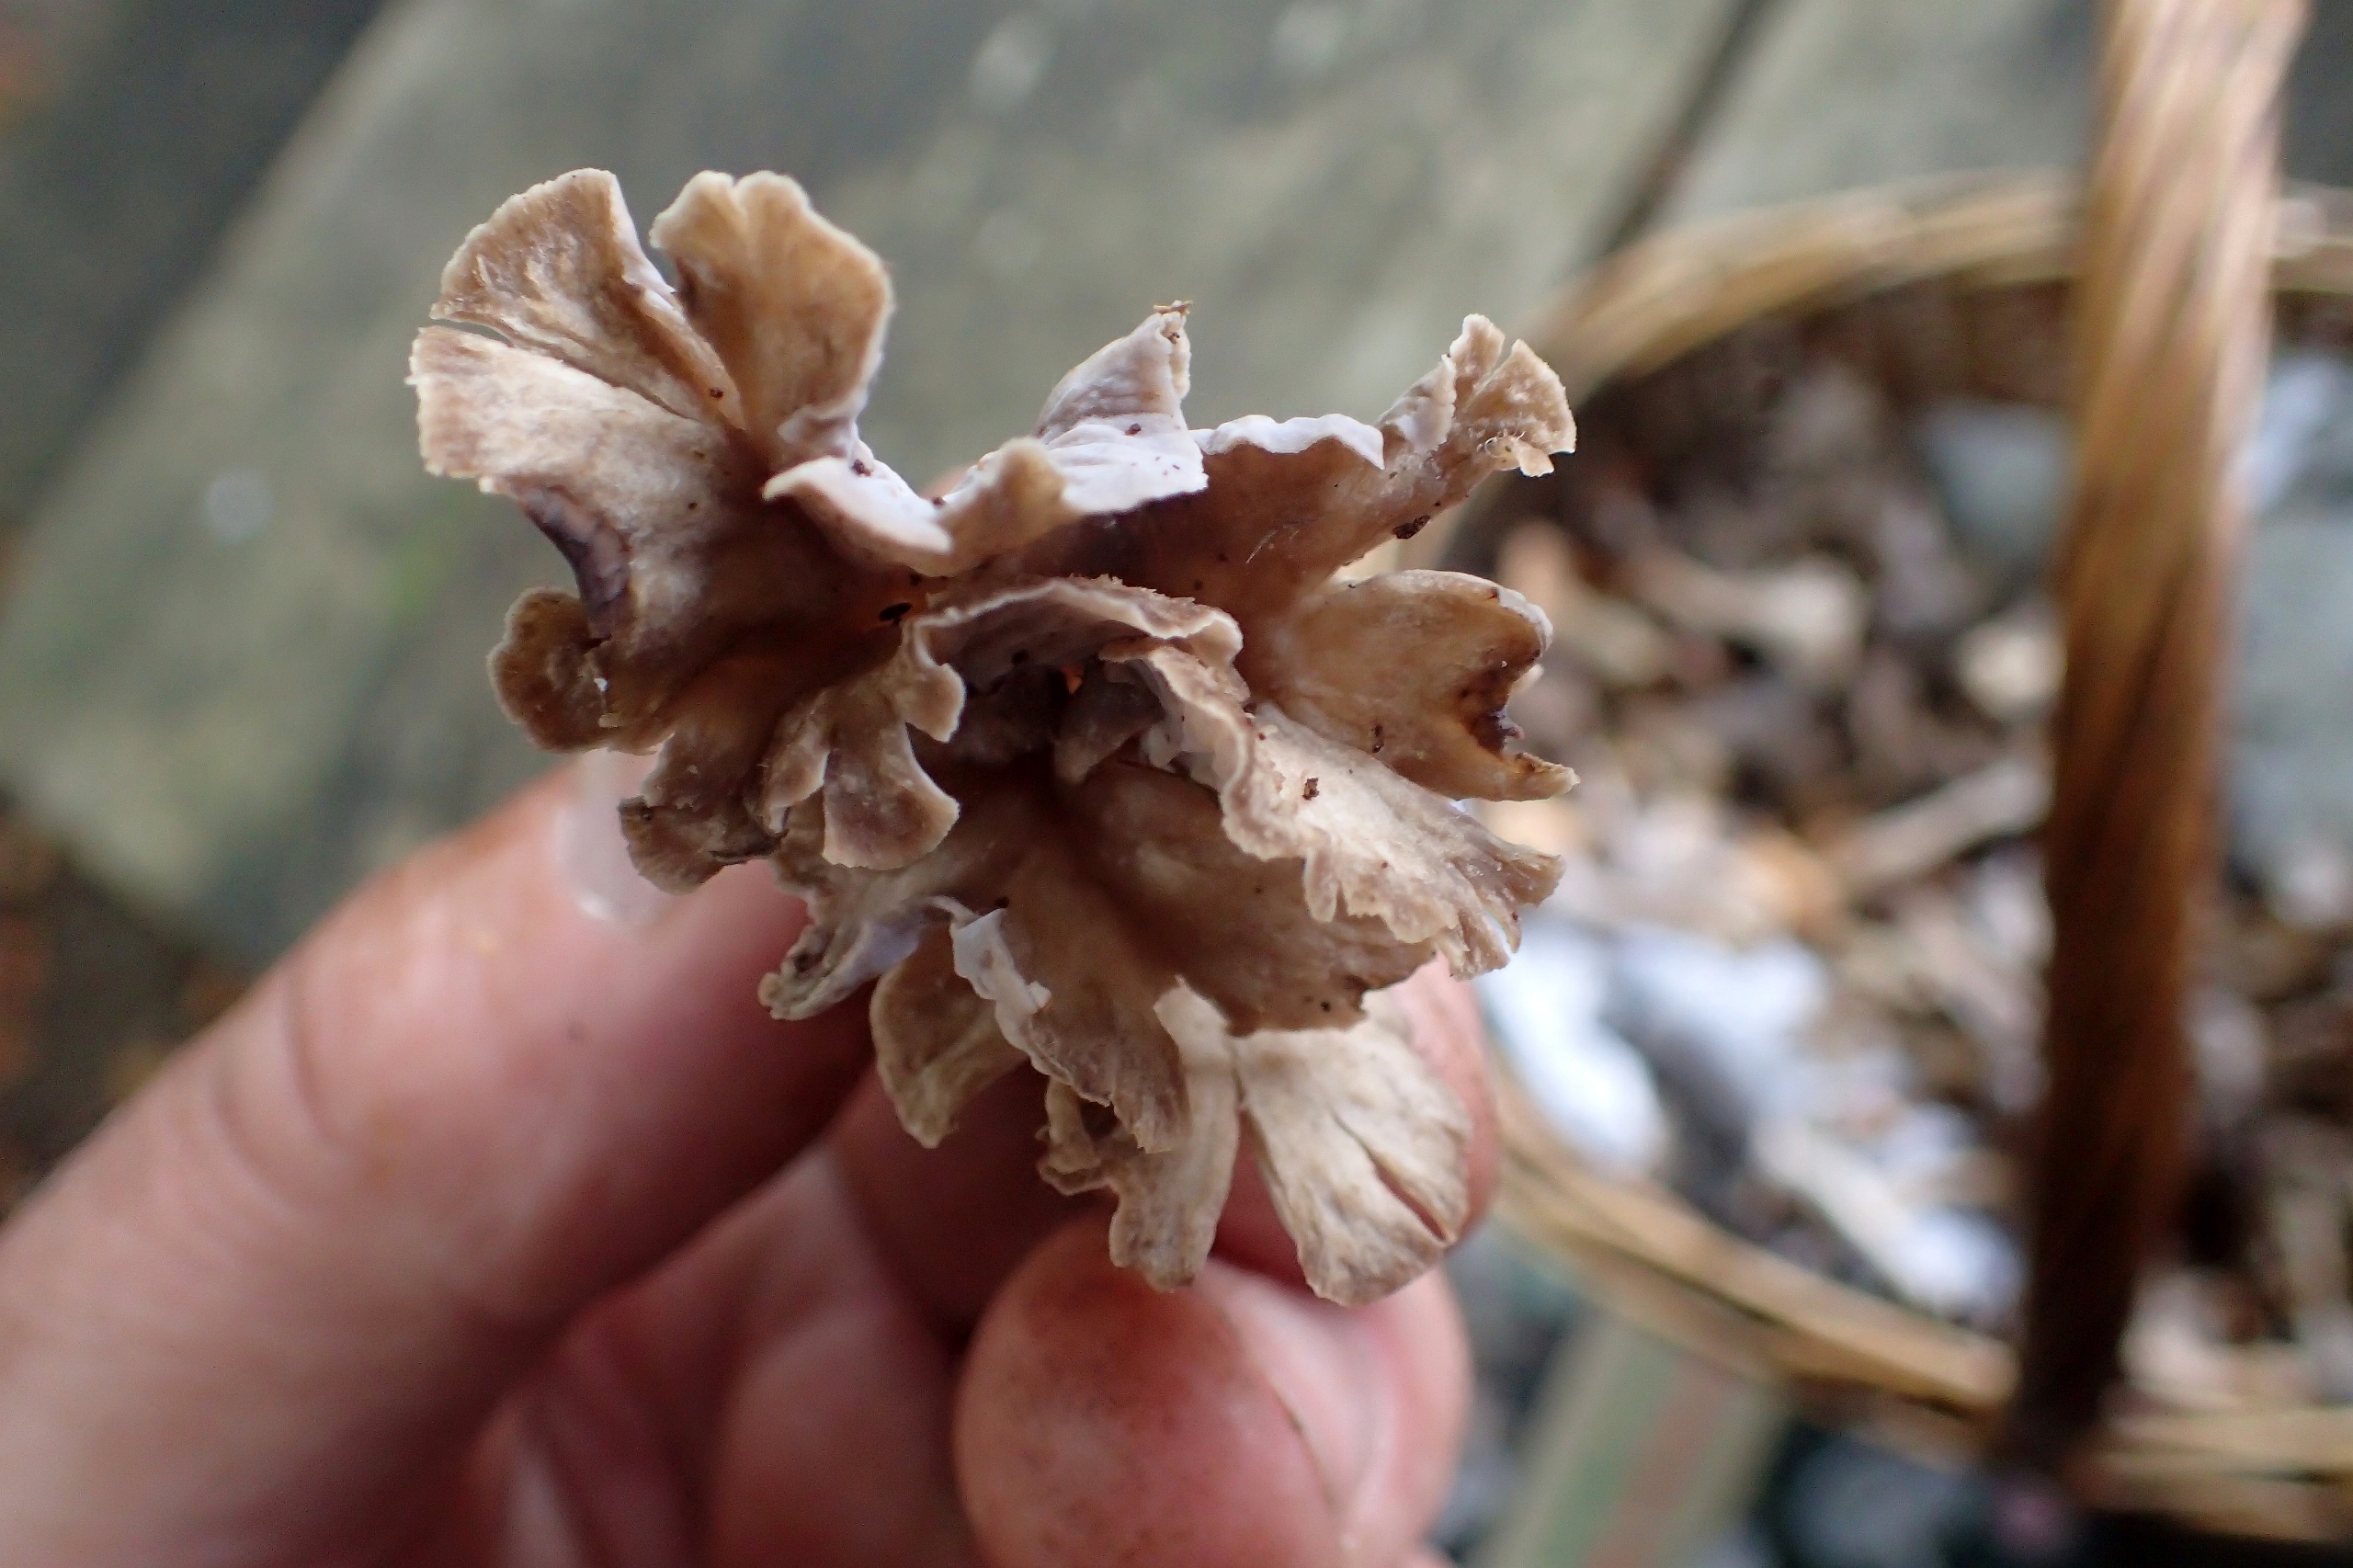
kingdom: Fungi
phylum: Basidiomycota
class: Agaricomycetes
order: Cantharellales
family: Hydnaceae
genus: Craterellus
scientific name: Craterellus undulatus
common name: Liden kantarel
